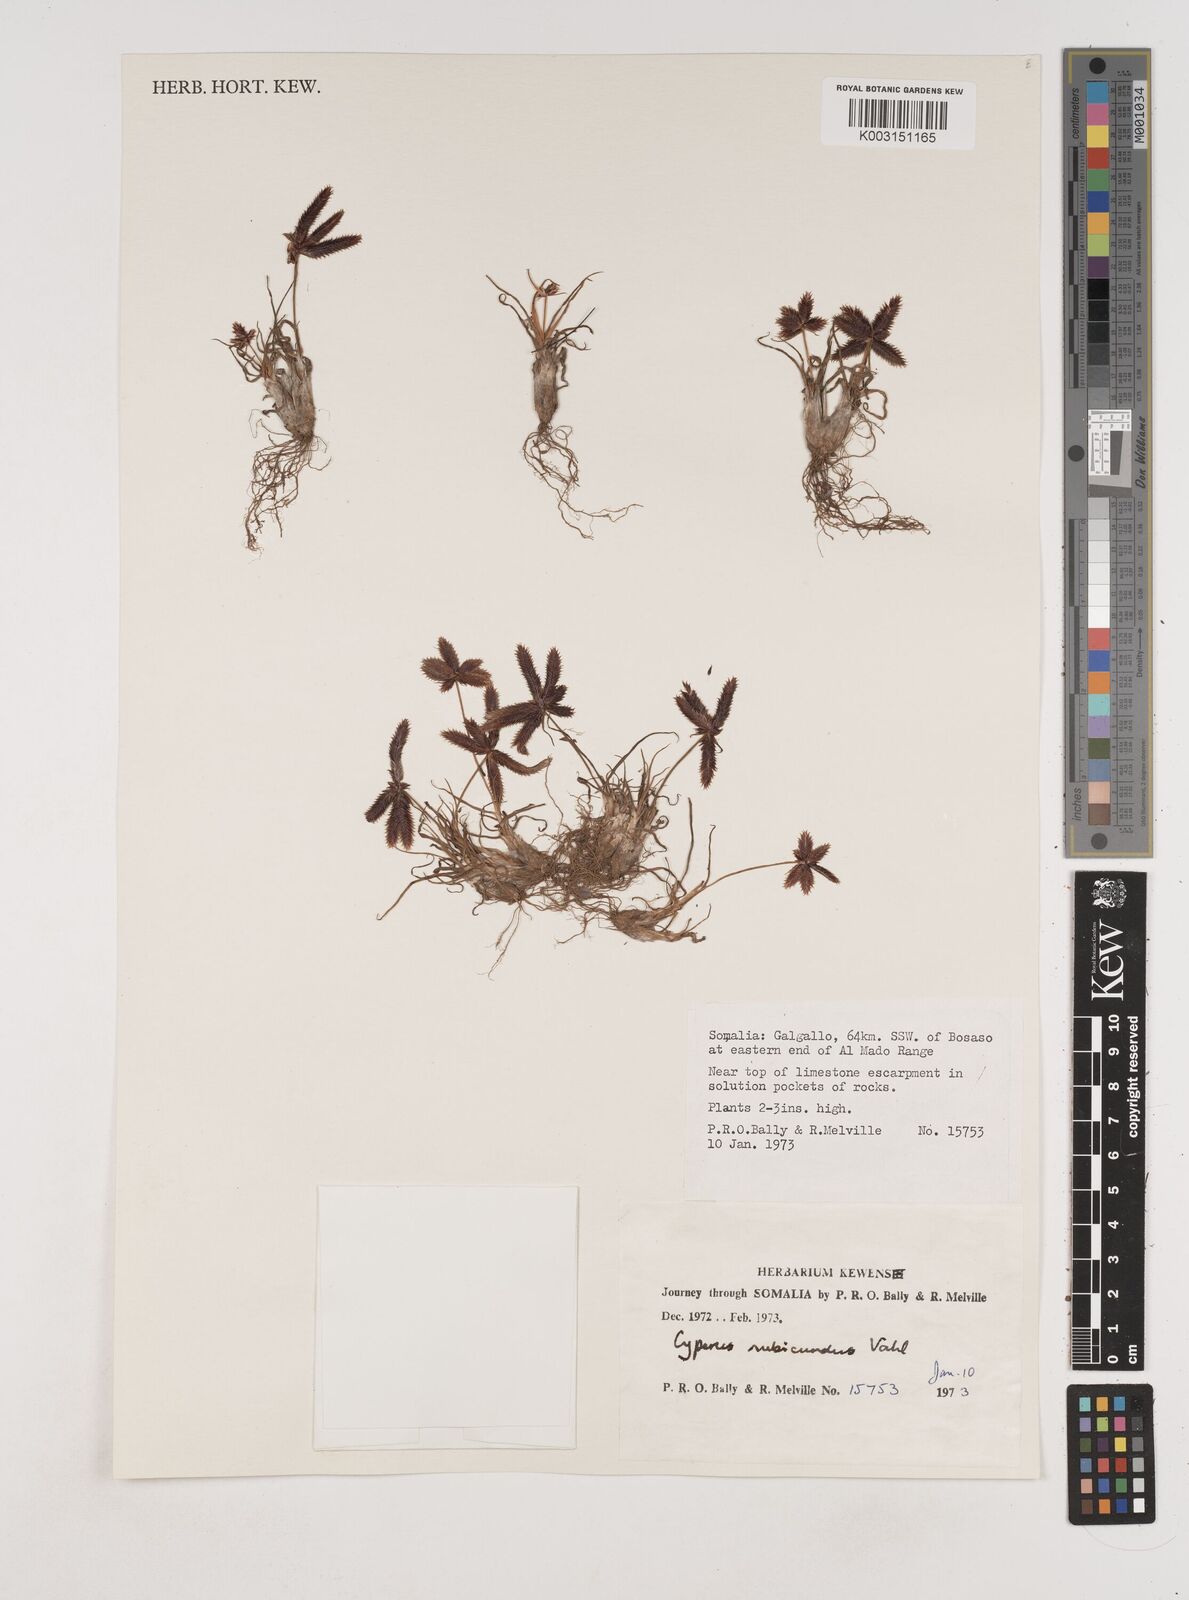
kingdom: Plantae
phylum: Tracheophyta
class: Liliopsida
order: Poales
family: Cyperaceae
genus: Cyperus
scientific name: Cyperus rubicundus
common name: Coco-grass
